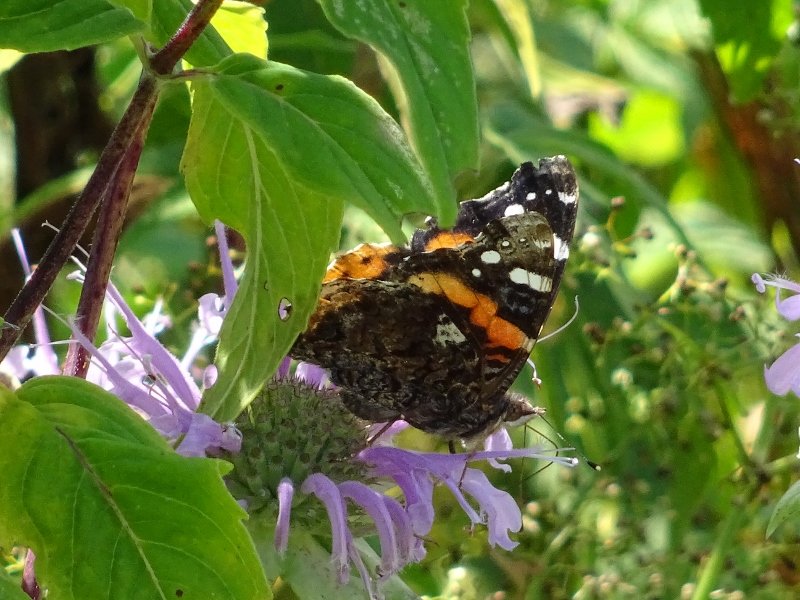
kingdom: Animalia
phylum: Arthropoda
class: Insecta
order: Lepidoptera
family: Nymphalidae
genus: Vanessa
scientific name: Vanessa atalanta
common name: Red Admiral
